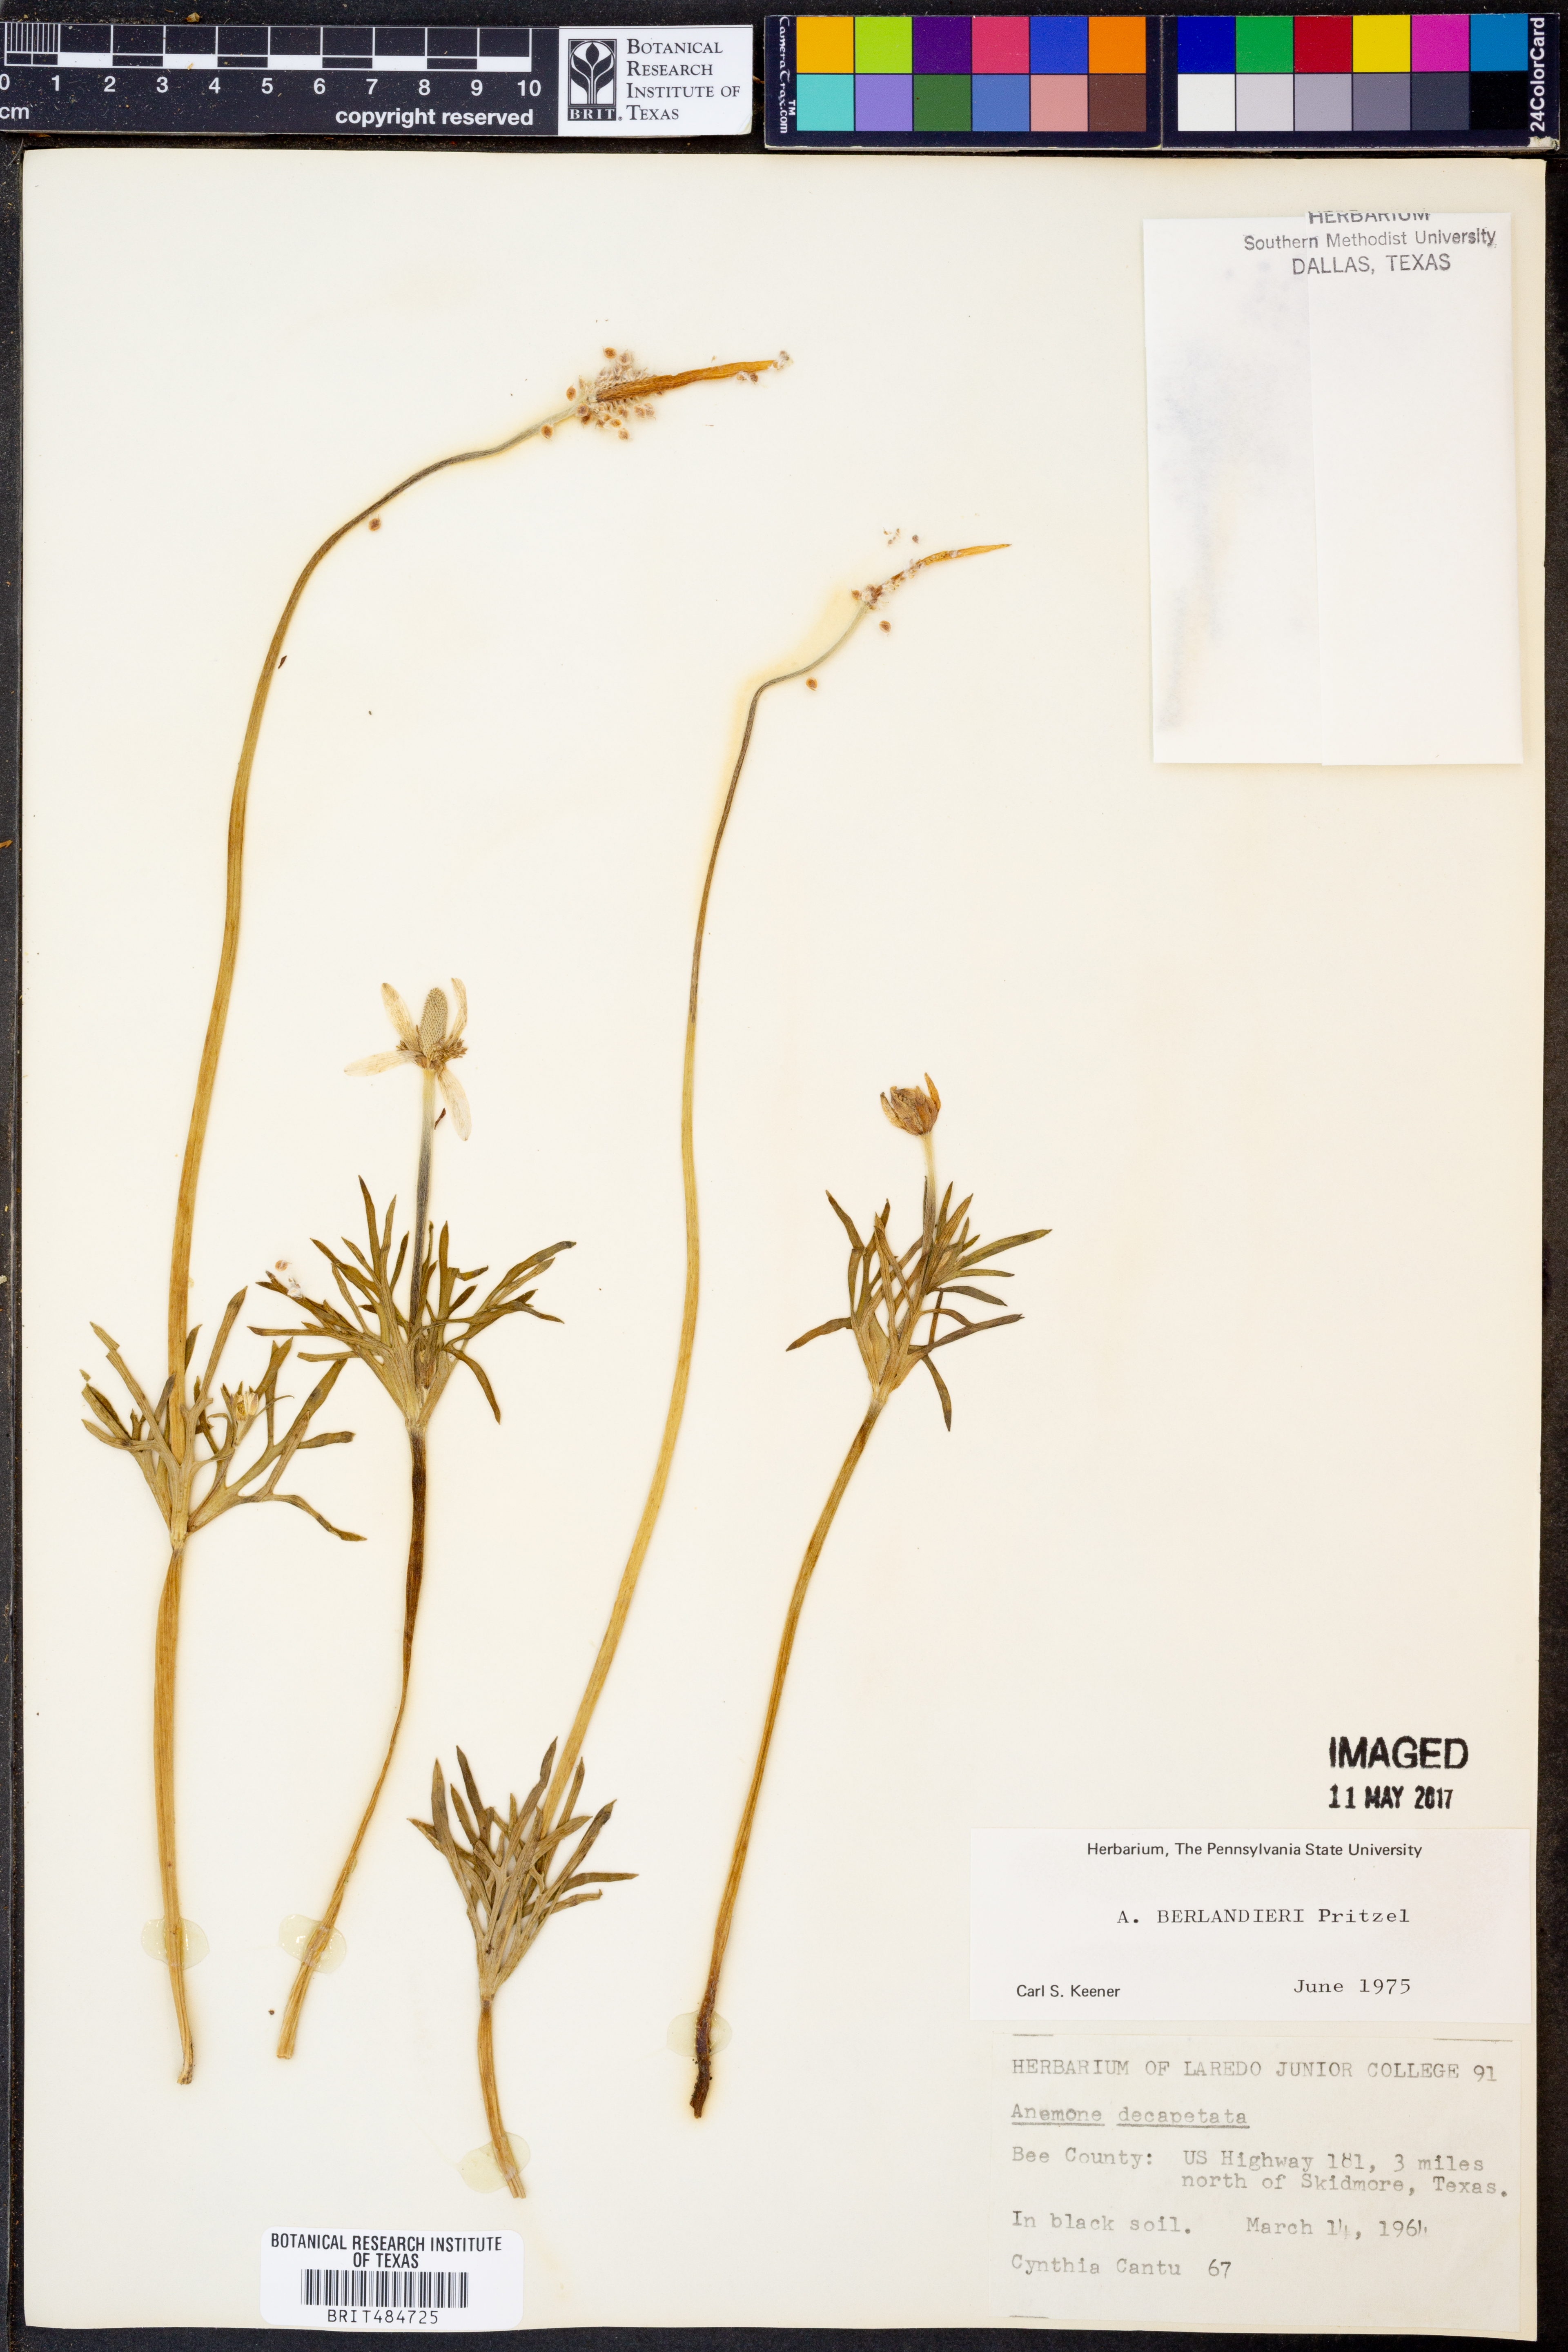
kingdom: Plantae
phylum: Tracheophyta
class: Magnoliopsida
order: Ranunculales
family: Ranunculaceae
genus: Anemone
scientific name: Anemone berlandieri
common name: Ten-petal anemone
